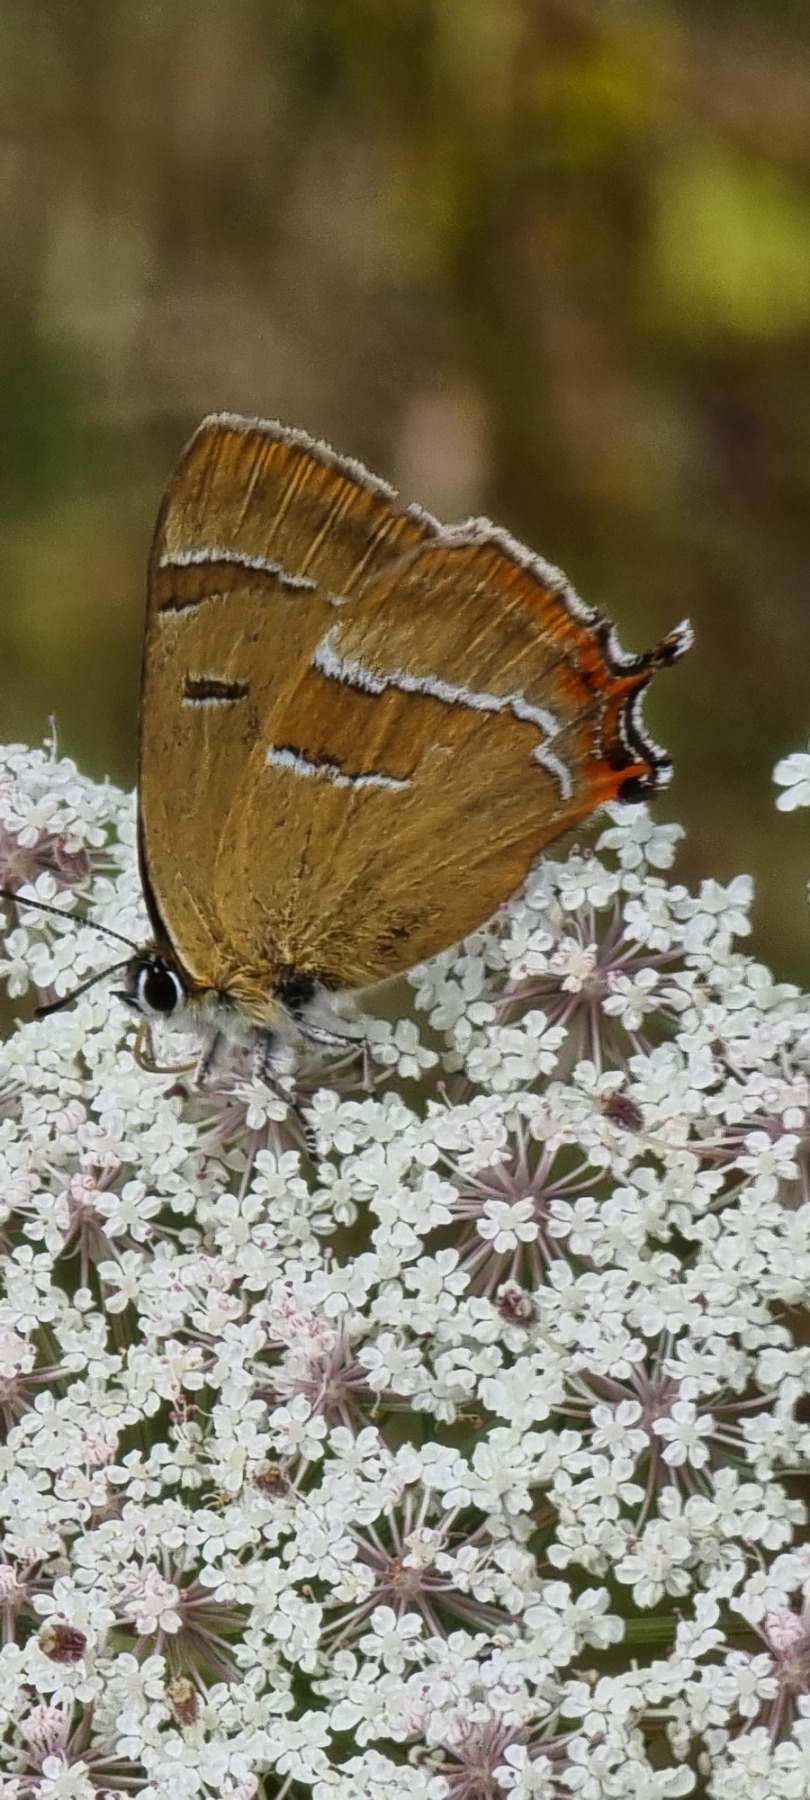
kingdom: Animalia
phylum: Arthropoda
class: Insecta
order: Lepidoptera
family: Lycaenidae
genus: Thecla
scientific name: Thecla betulae
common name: Guldhale
